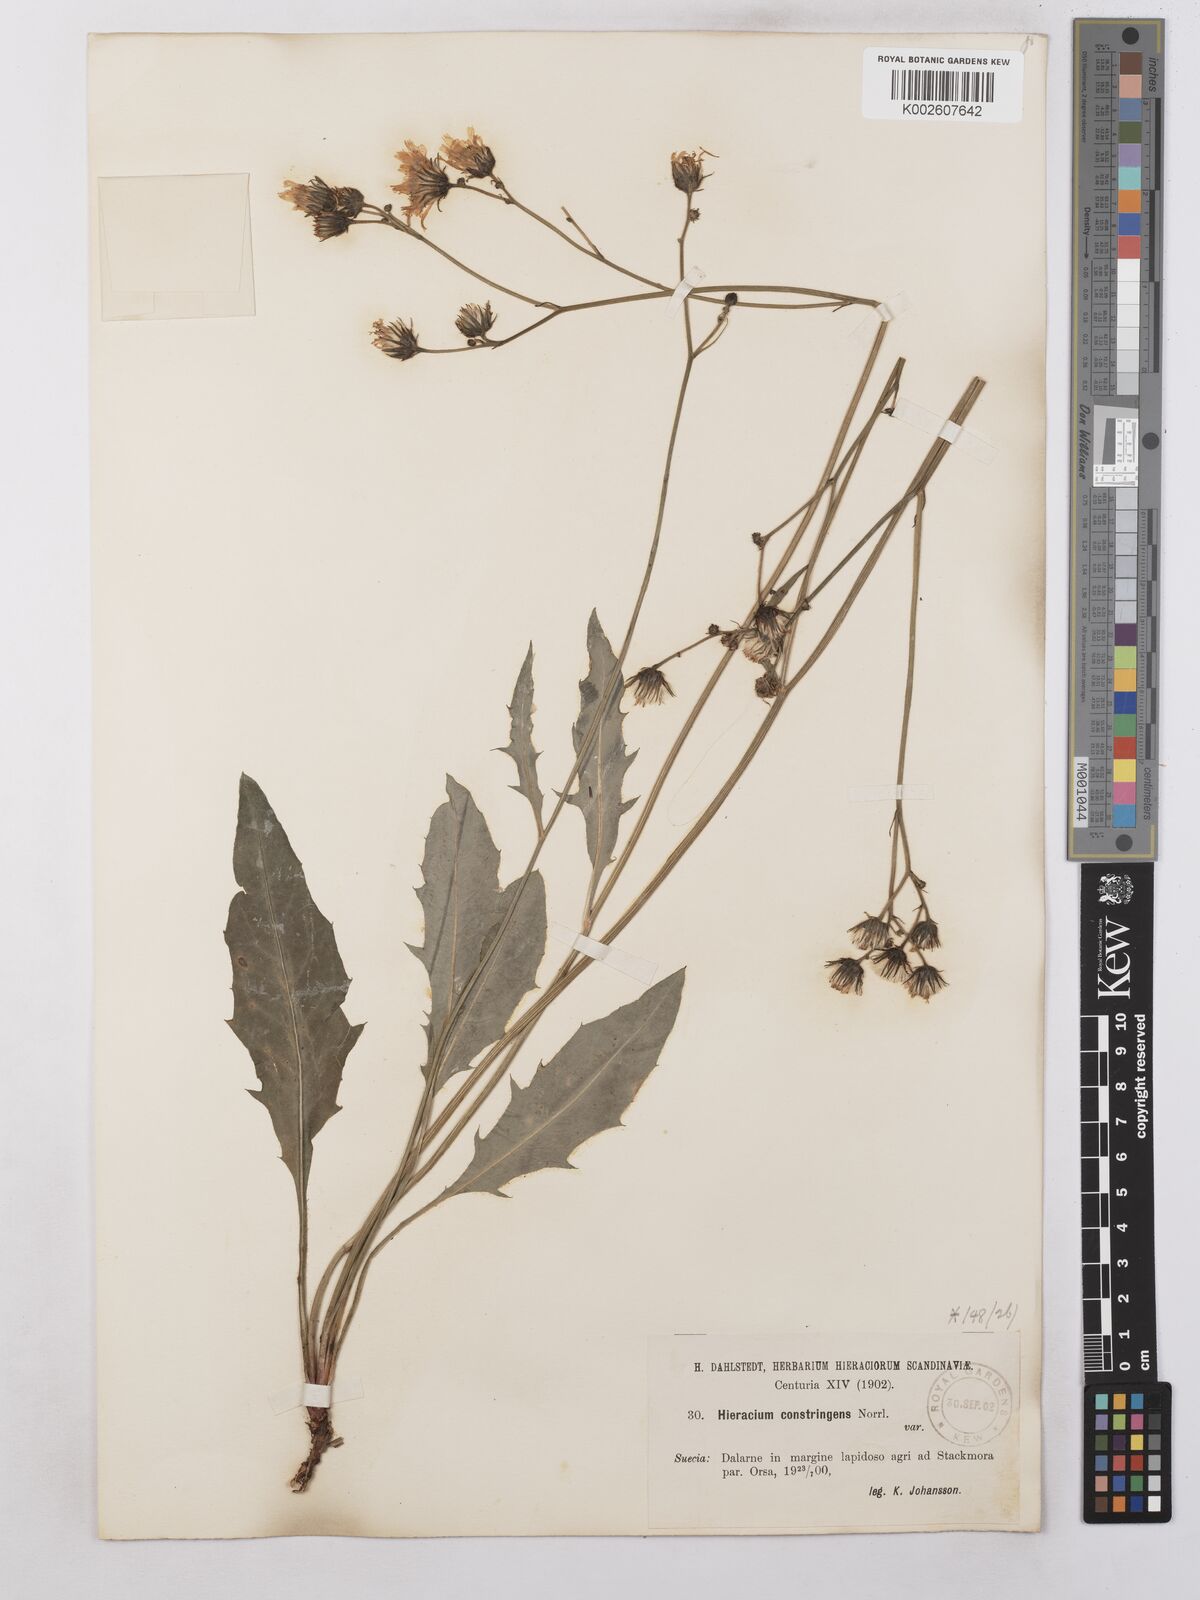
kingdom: Plantae
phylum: Tracheophyta
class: Magnoliopsida
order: Asterales
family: Asteraceae
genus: Hieracium
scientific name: Hieracium subramosum
